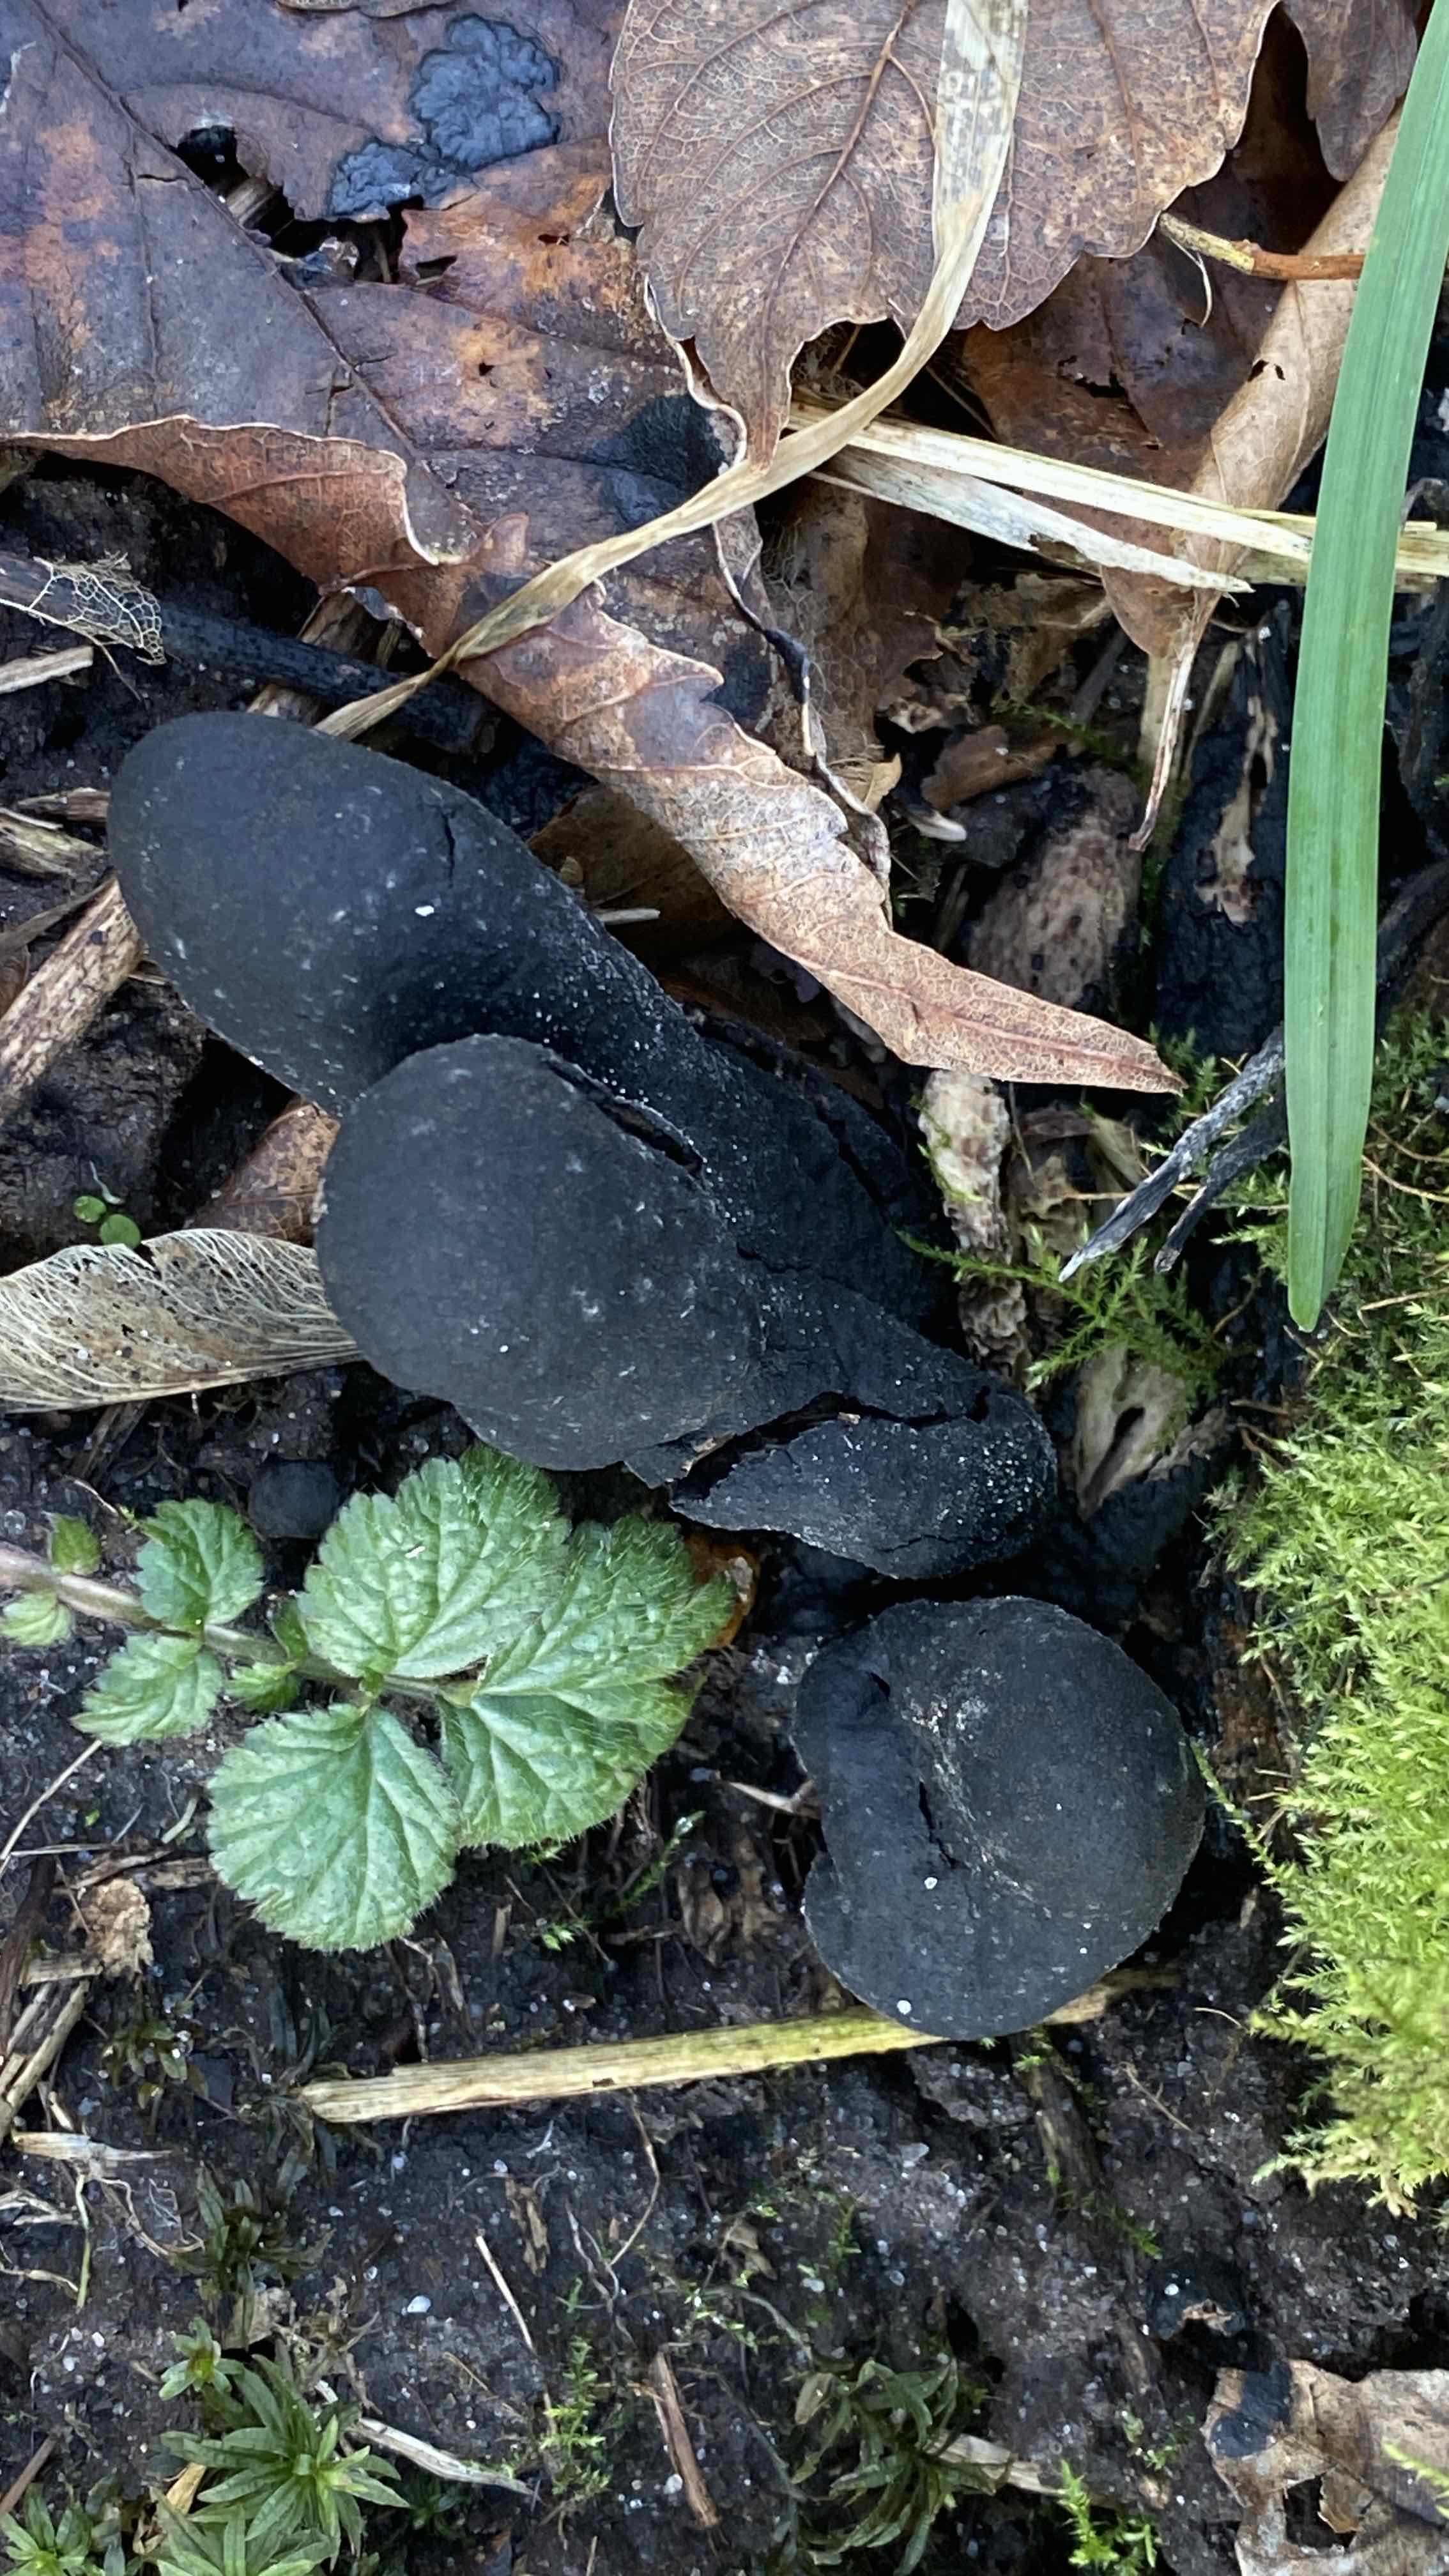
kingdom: Fungi
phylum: Ascomycota
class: Sordariomycetes
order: Xylariales
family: Xylariaceae
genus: Xylaria
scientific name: Xylaria polymorpha
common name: kølle-stødsvamp
